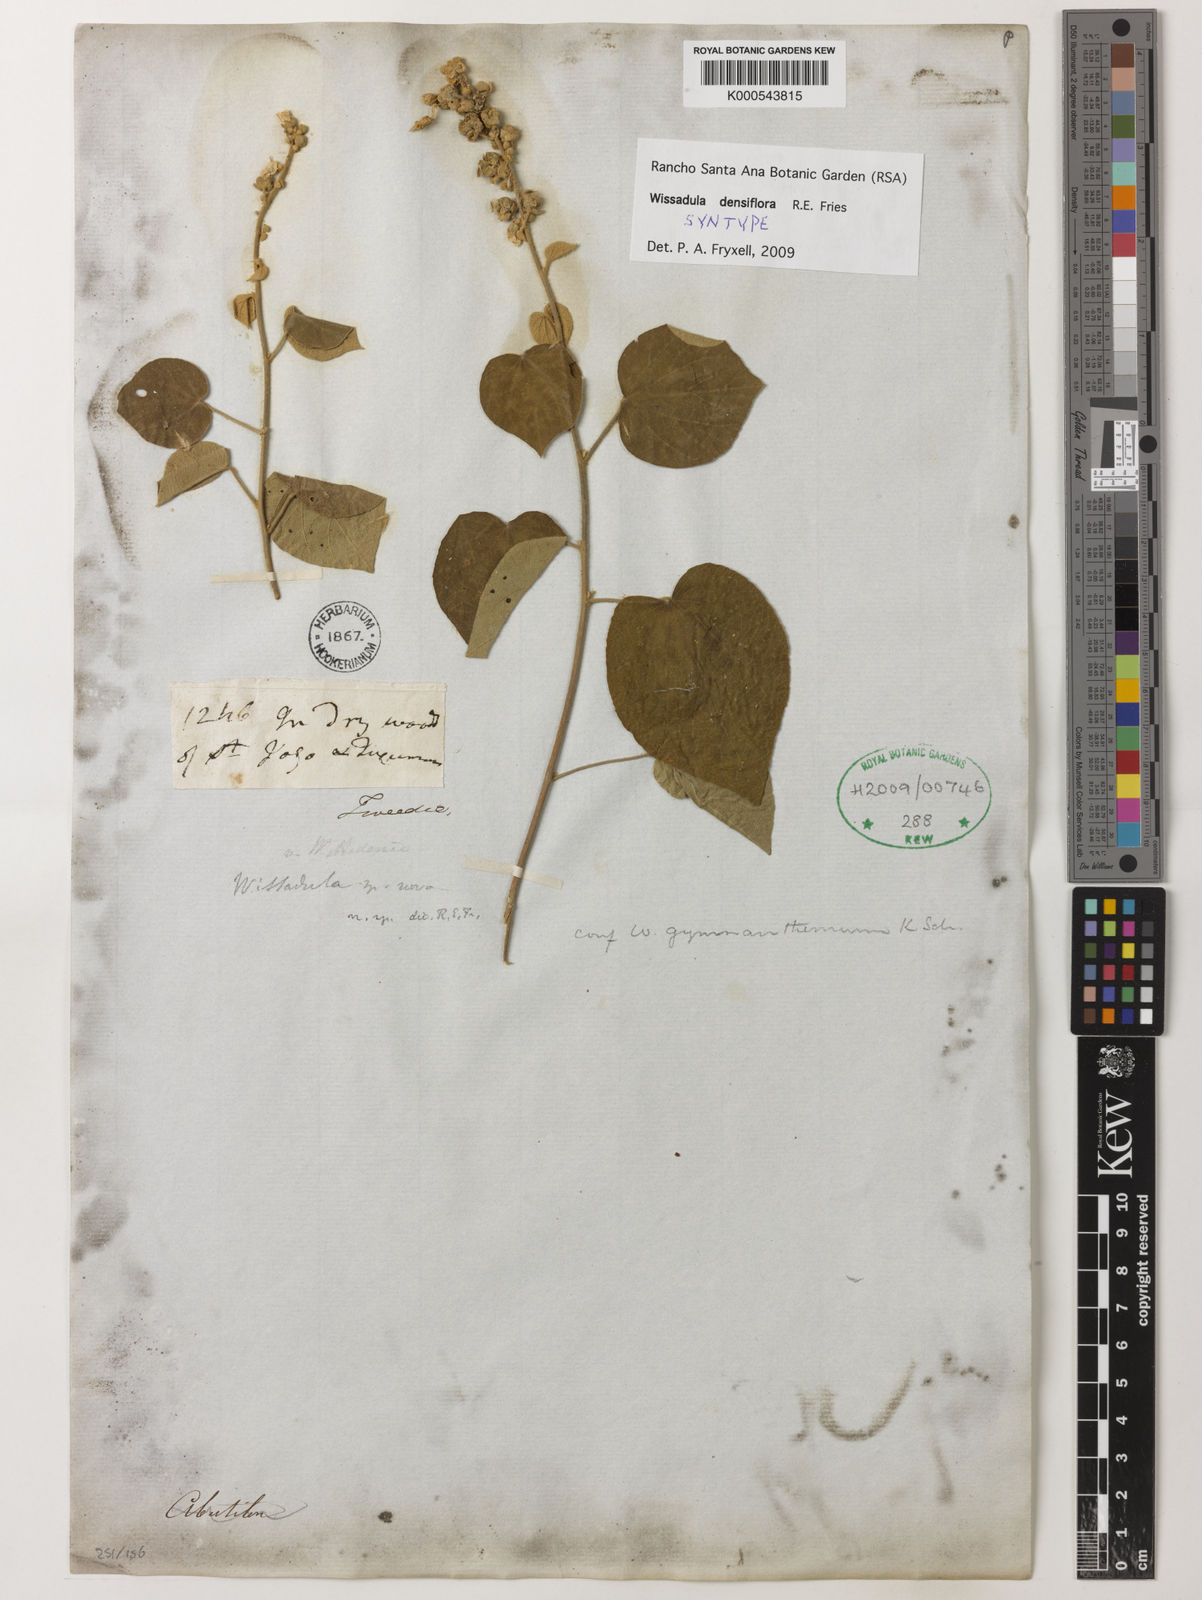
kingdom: Plantae
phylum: Tracheophyta
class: Magnoliopsida
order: Malvales
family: Malvaceae
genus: Wissadula
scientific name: Wissadula densiflora
